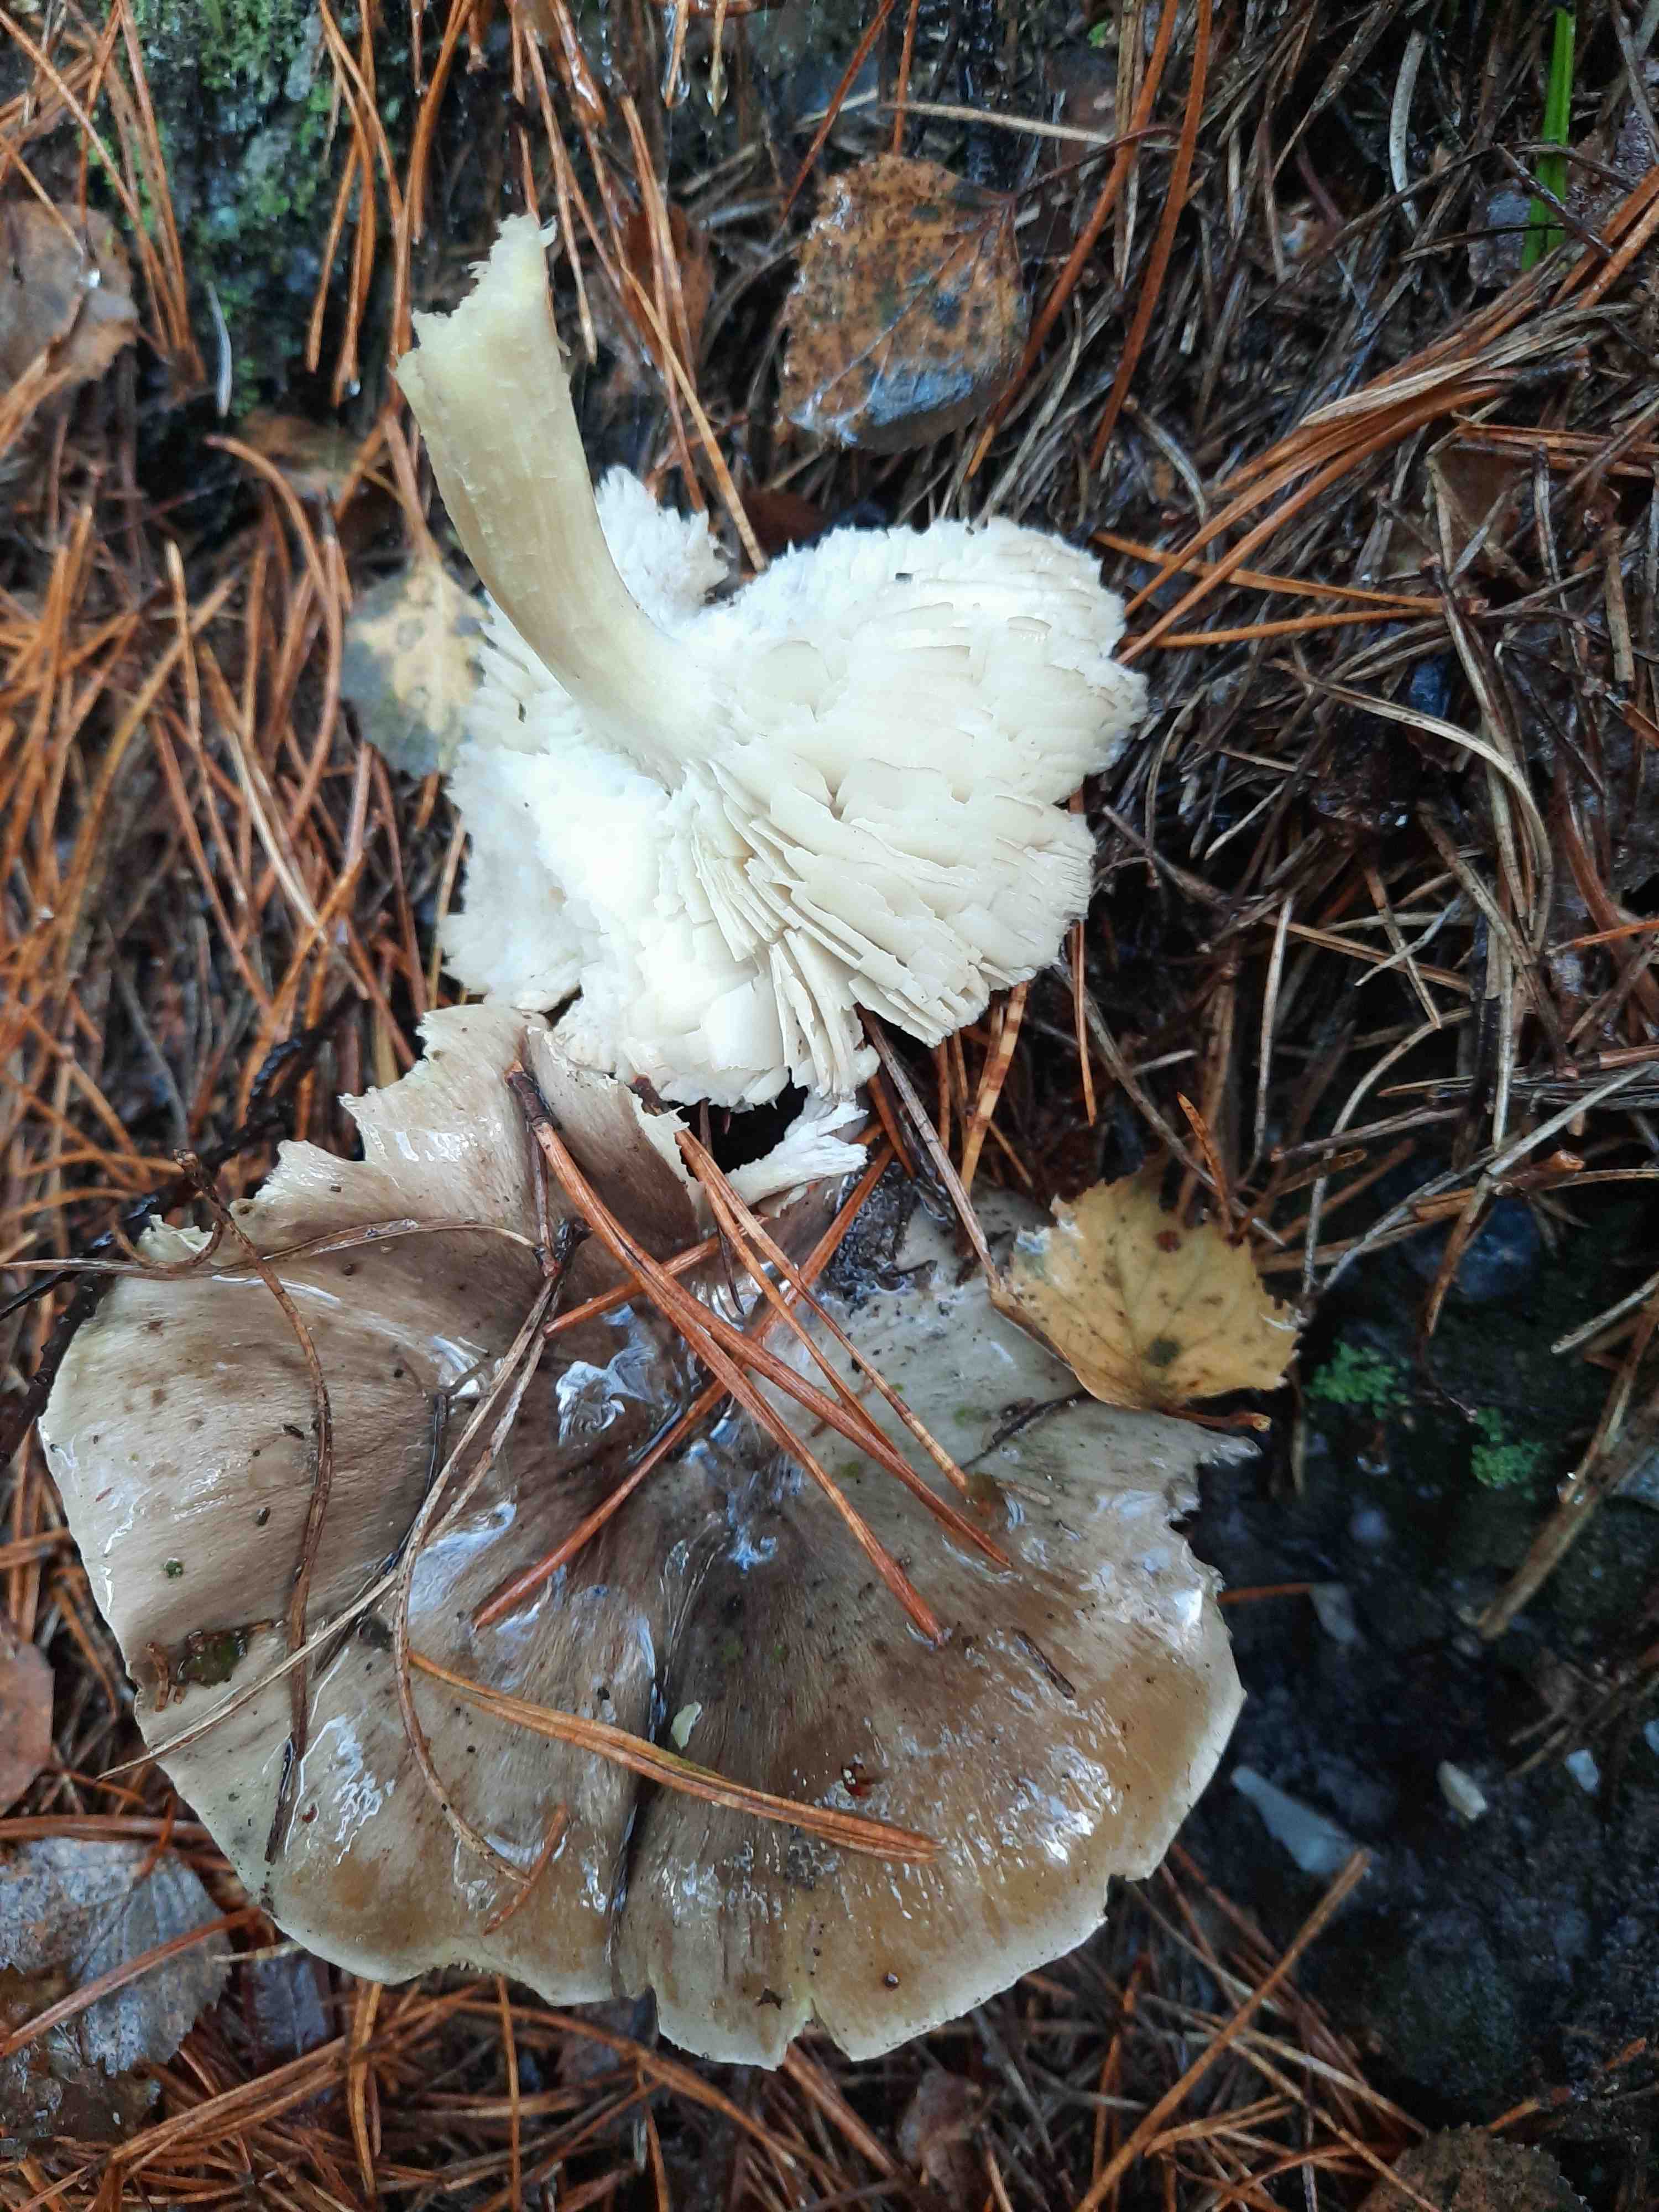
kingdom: Fungi
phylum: Basidiomycota
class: Agaricomycetes
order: Agaricales
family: Tricholomataceae
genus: Tricholoma
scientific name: Tricholoma portentosum
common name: grå ridderhat
